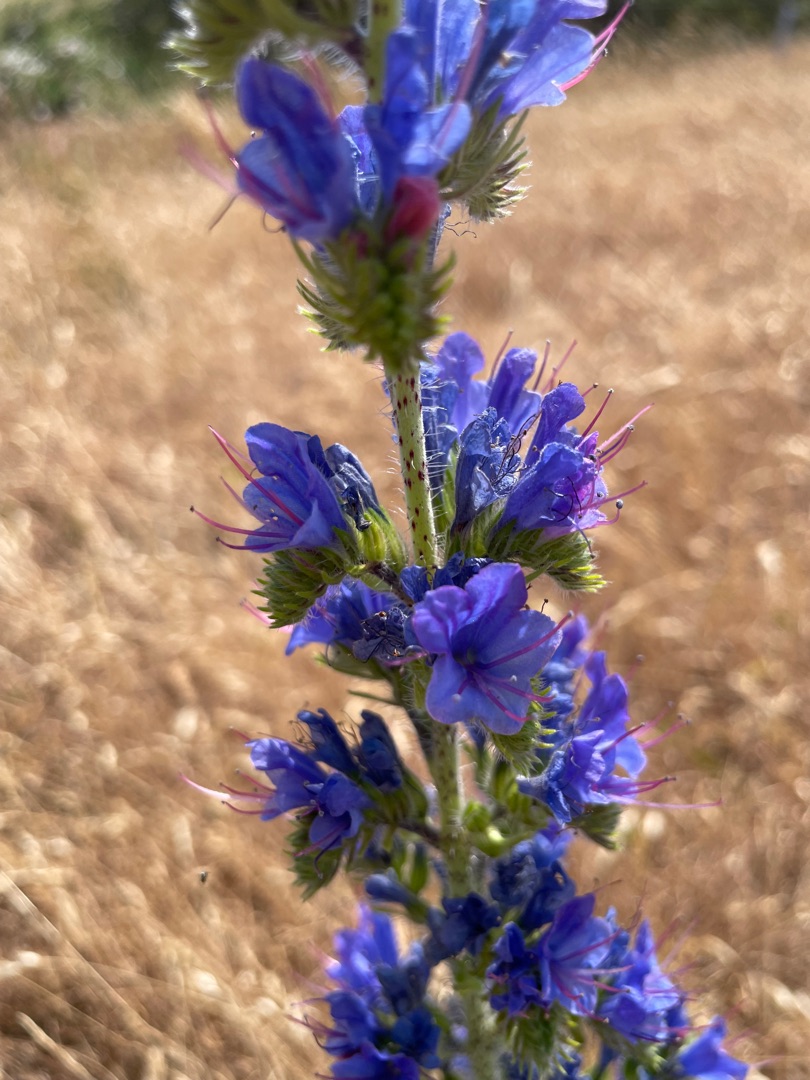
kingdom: Plantae
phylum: Tracheophyta
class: Magnoliopsida
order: Boraginales
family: Boraginaceae
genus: Echium
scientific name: Echium vulgare
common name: Slangehoved
